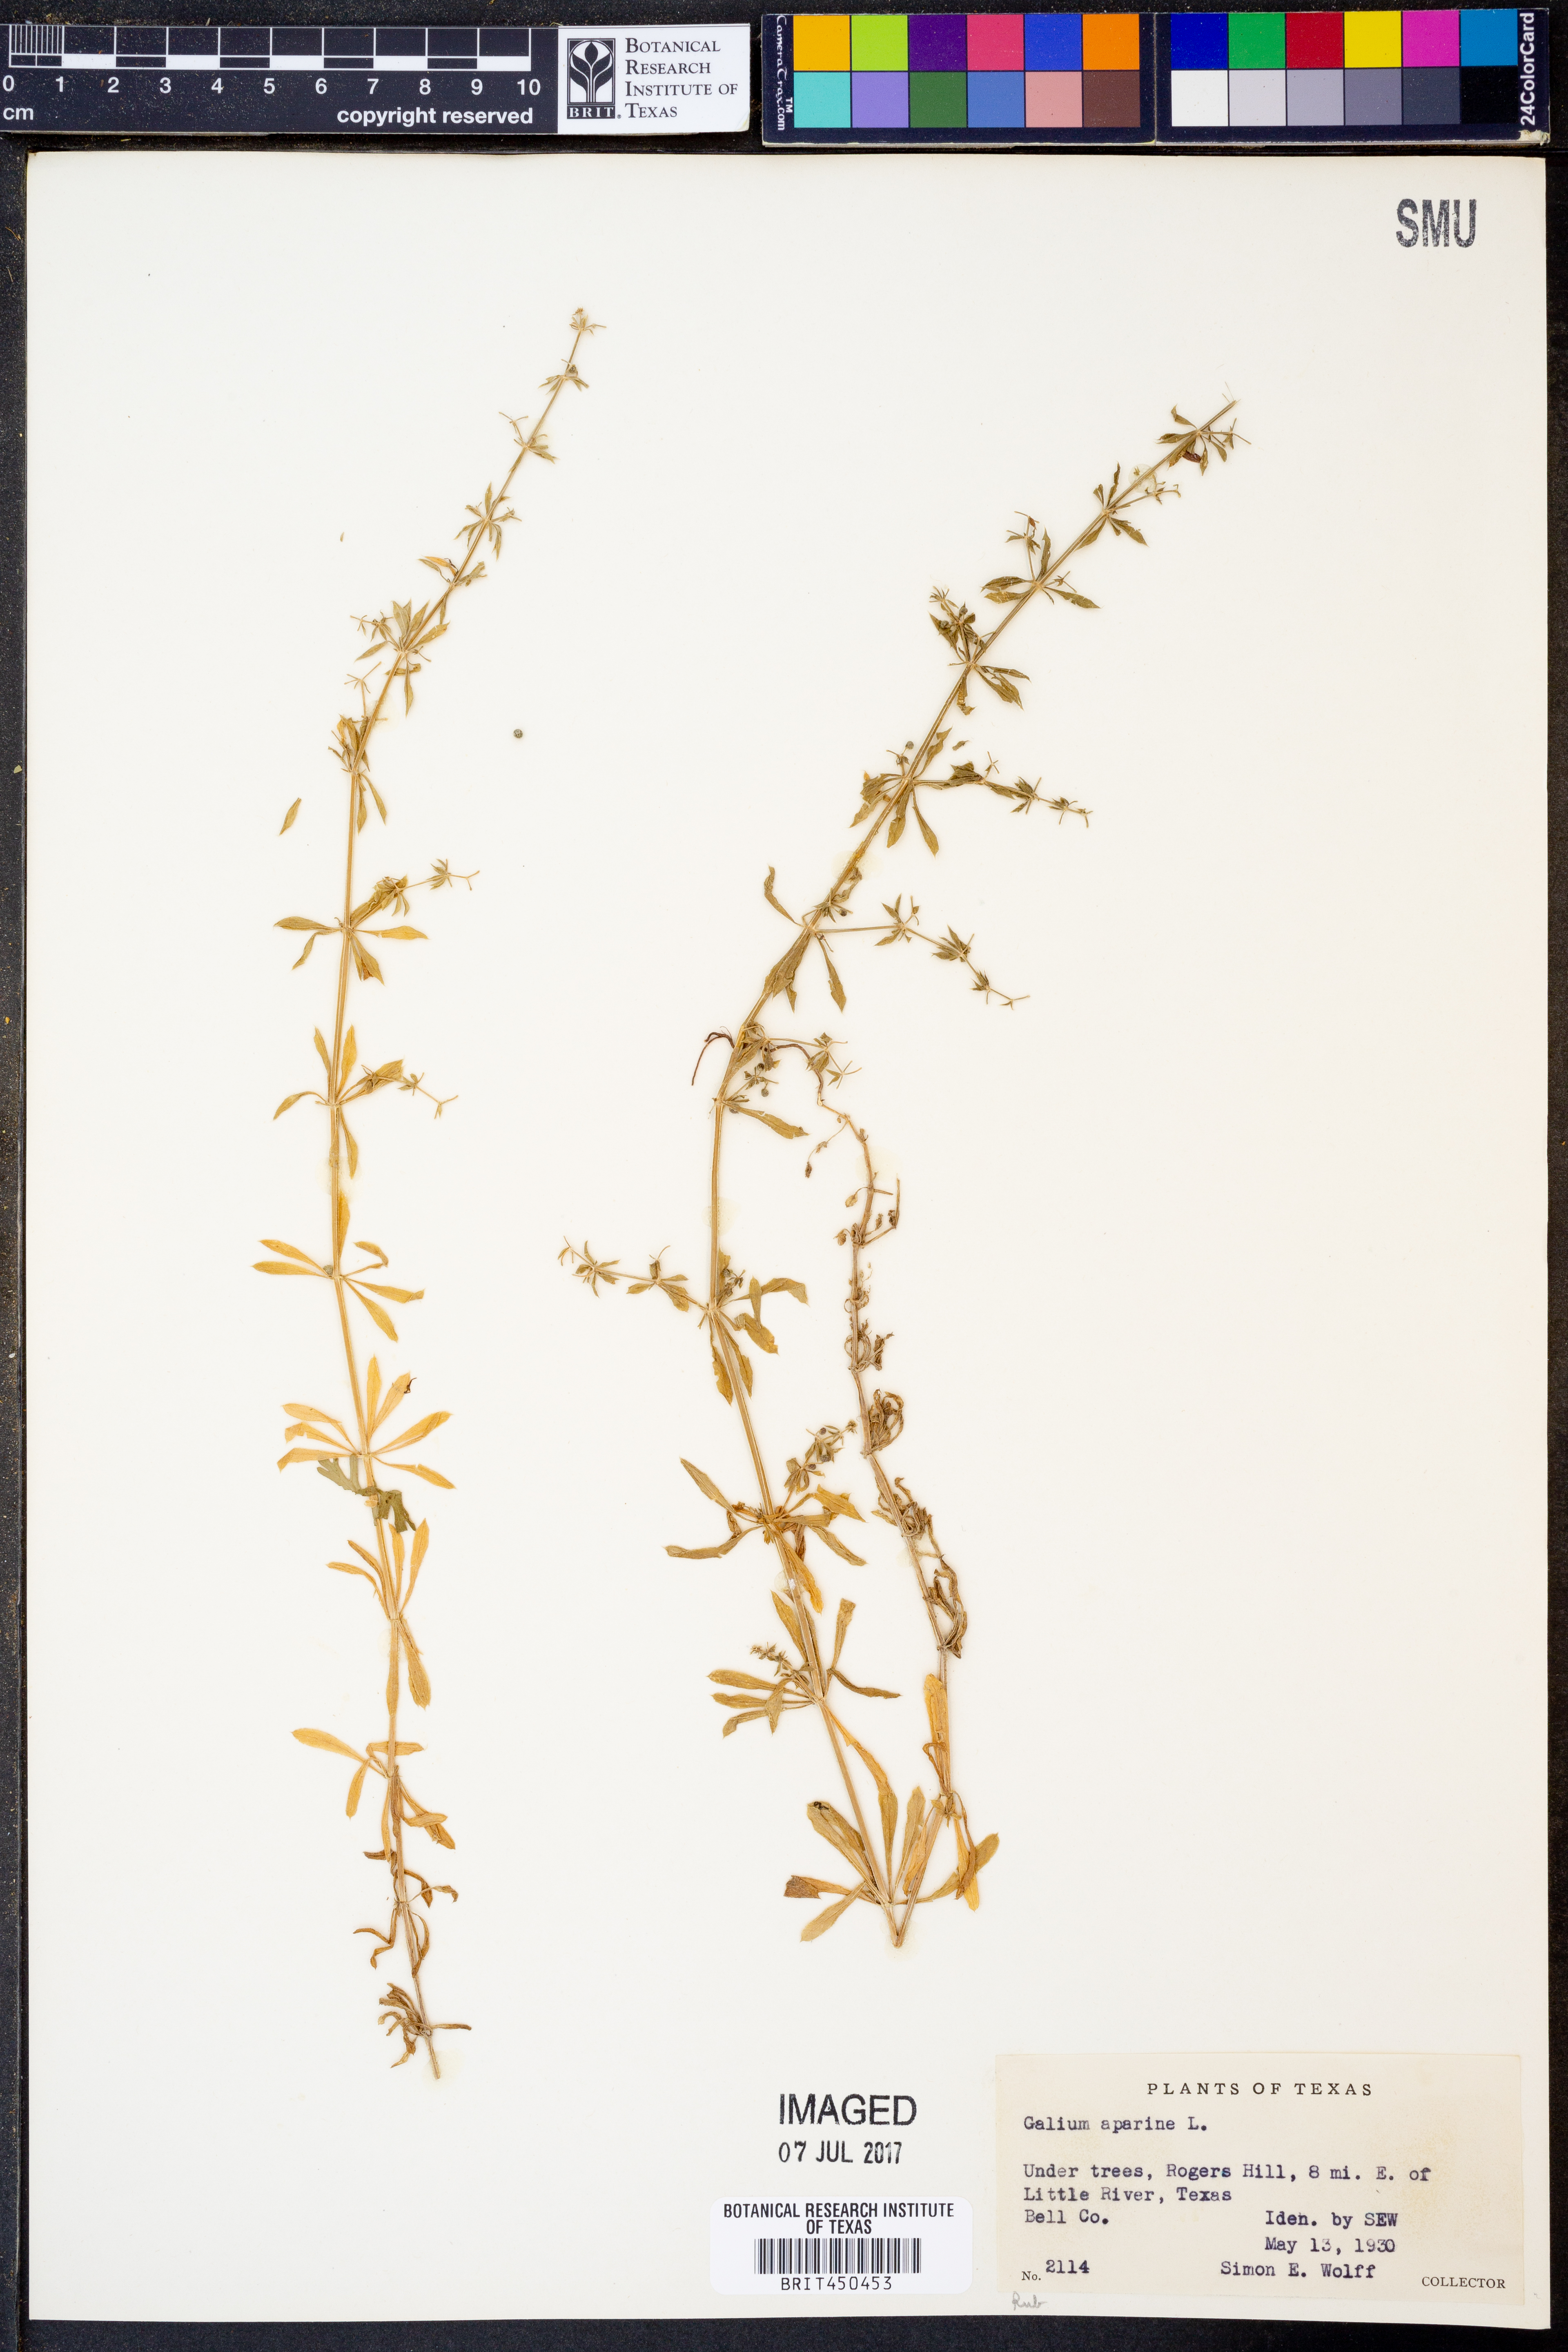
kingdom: Plantae
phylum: Tracheophyta
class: Magnoliopsida
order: Gentianales
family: Rubiaceae
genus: Galium
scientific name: Galium aparine
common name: Cleavers
